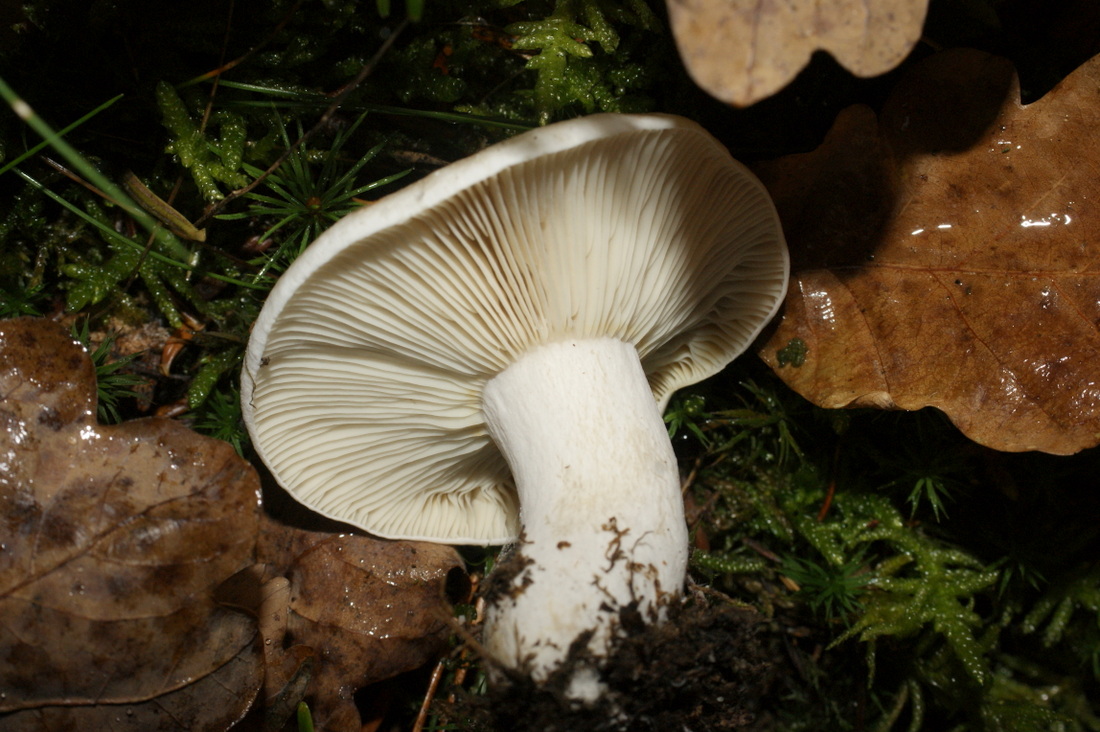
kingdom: Fungi
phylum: Basidiomycota
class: Agaricomycetes
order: Russulales
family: Russulaceae
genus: Russula
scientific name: Russula densifolia
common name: tætbladet skørhat
